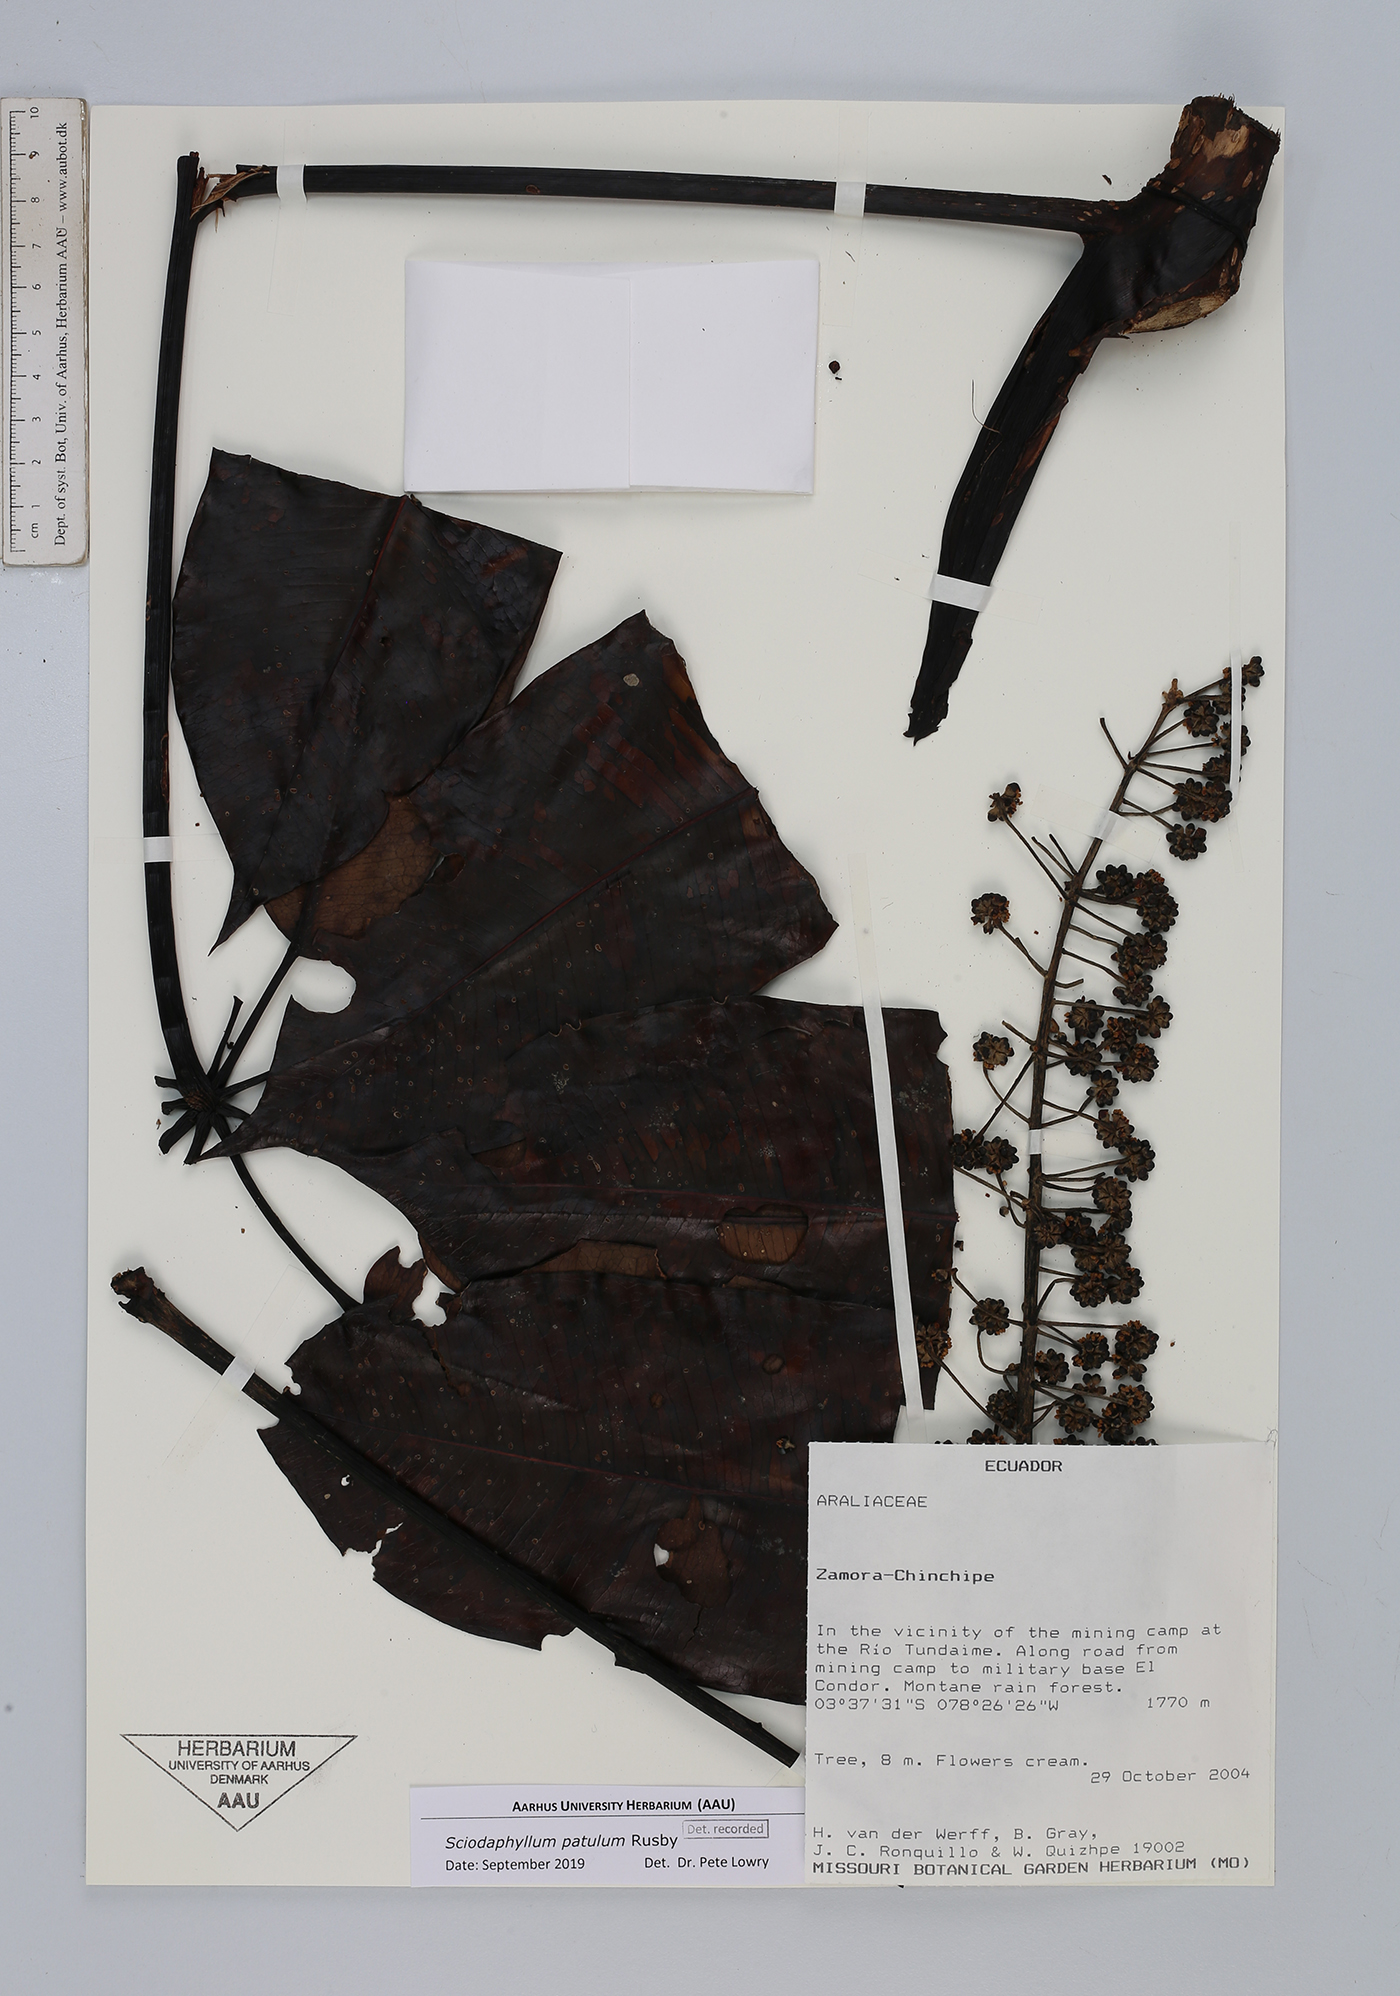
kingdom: Plantae
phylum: Tracheophyta
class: Magnoliopsida
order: Apiales
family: Araliaceae
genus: Sciodaphyllum
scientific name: Sciodaphyllum patulum
